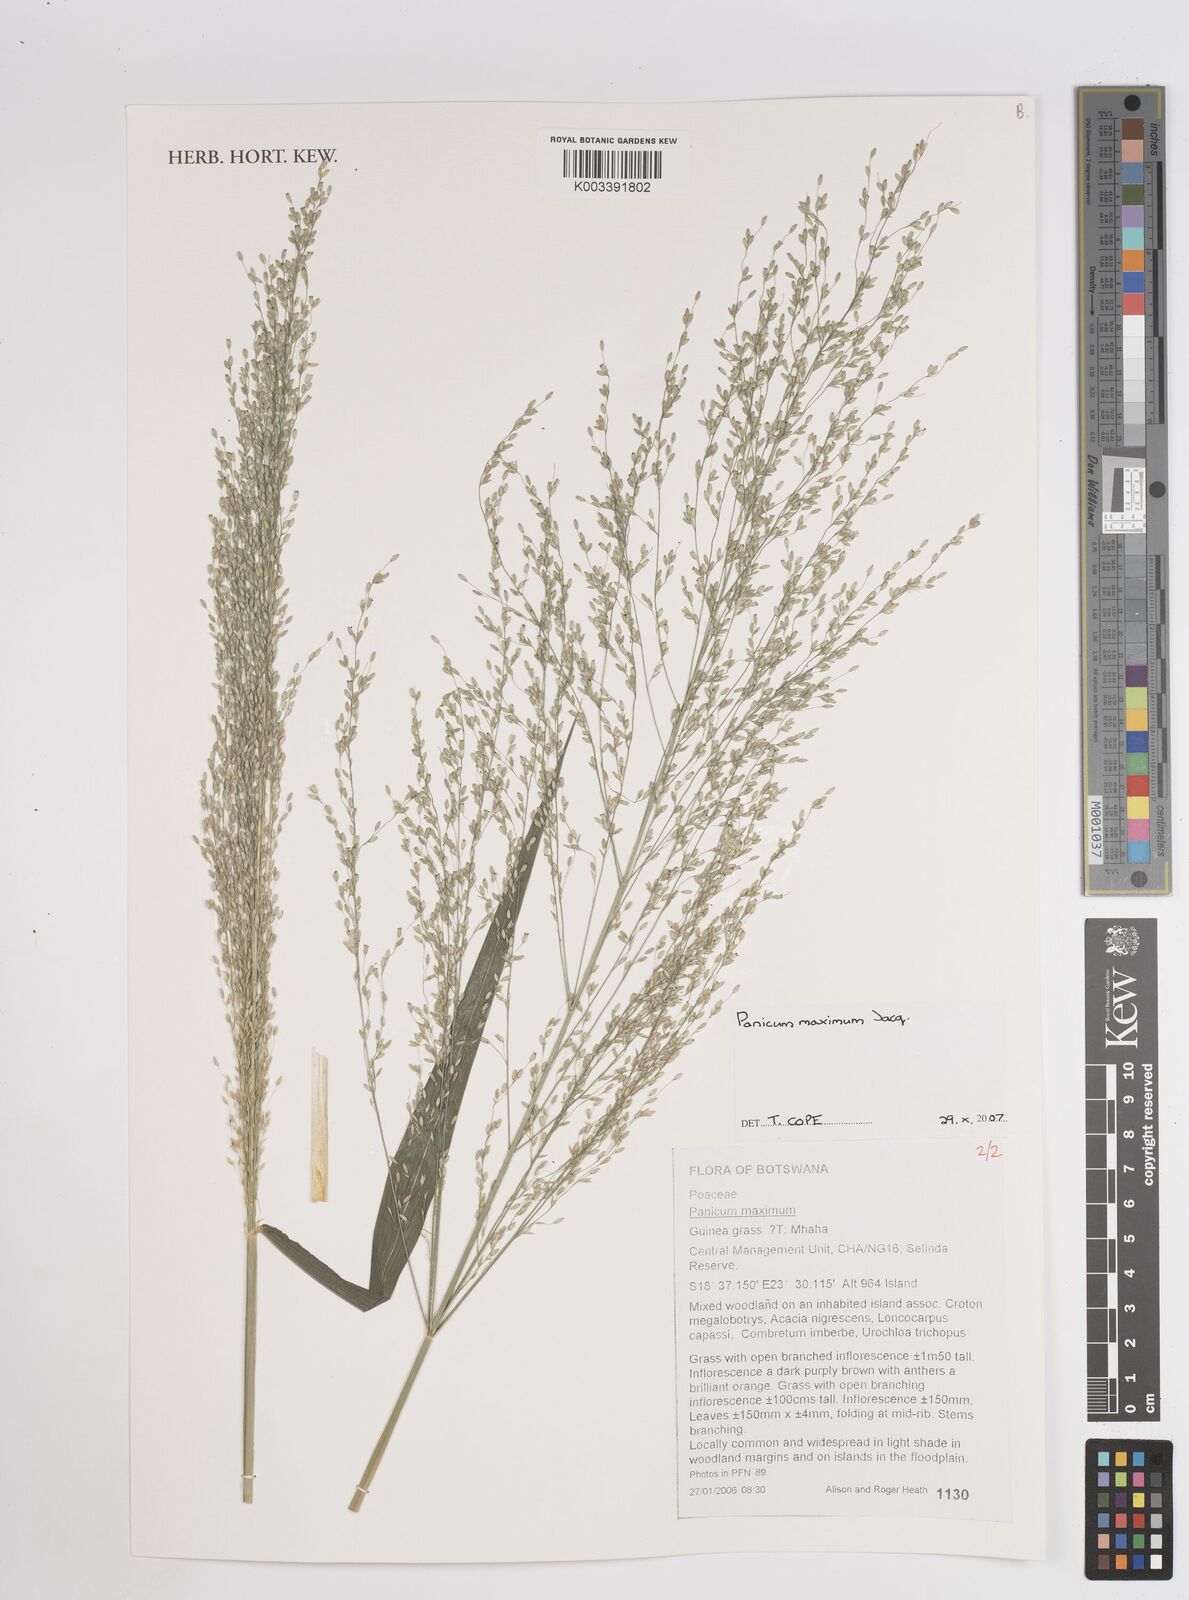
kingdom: Plantae
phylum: Tracheophyta
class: Liliopsida
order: Poales
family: Poaceae
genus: Megathyrsus
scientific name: Megathyrsus maximus
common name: Guineagrass
